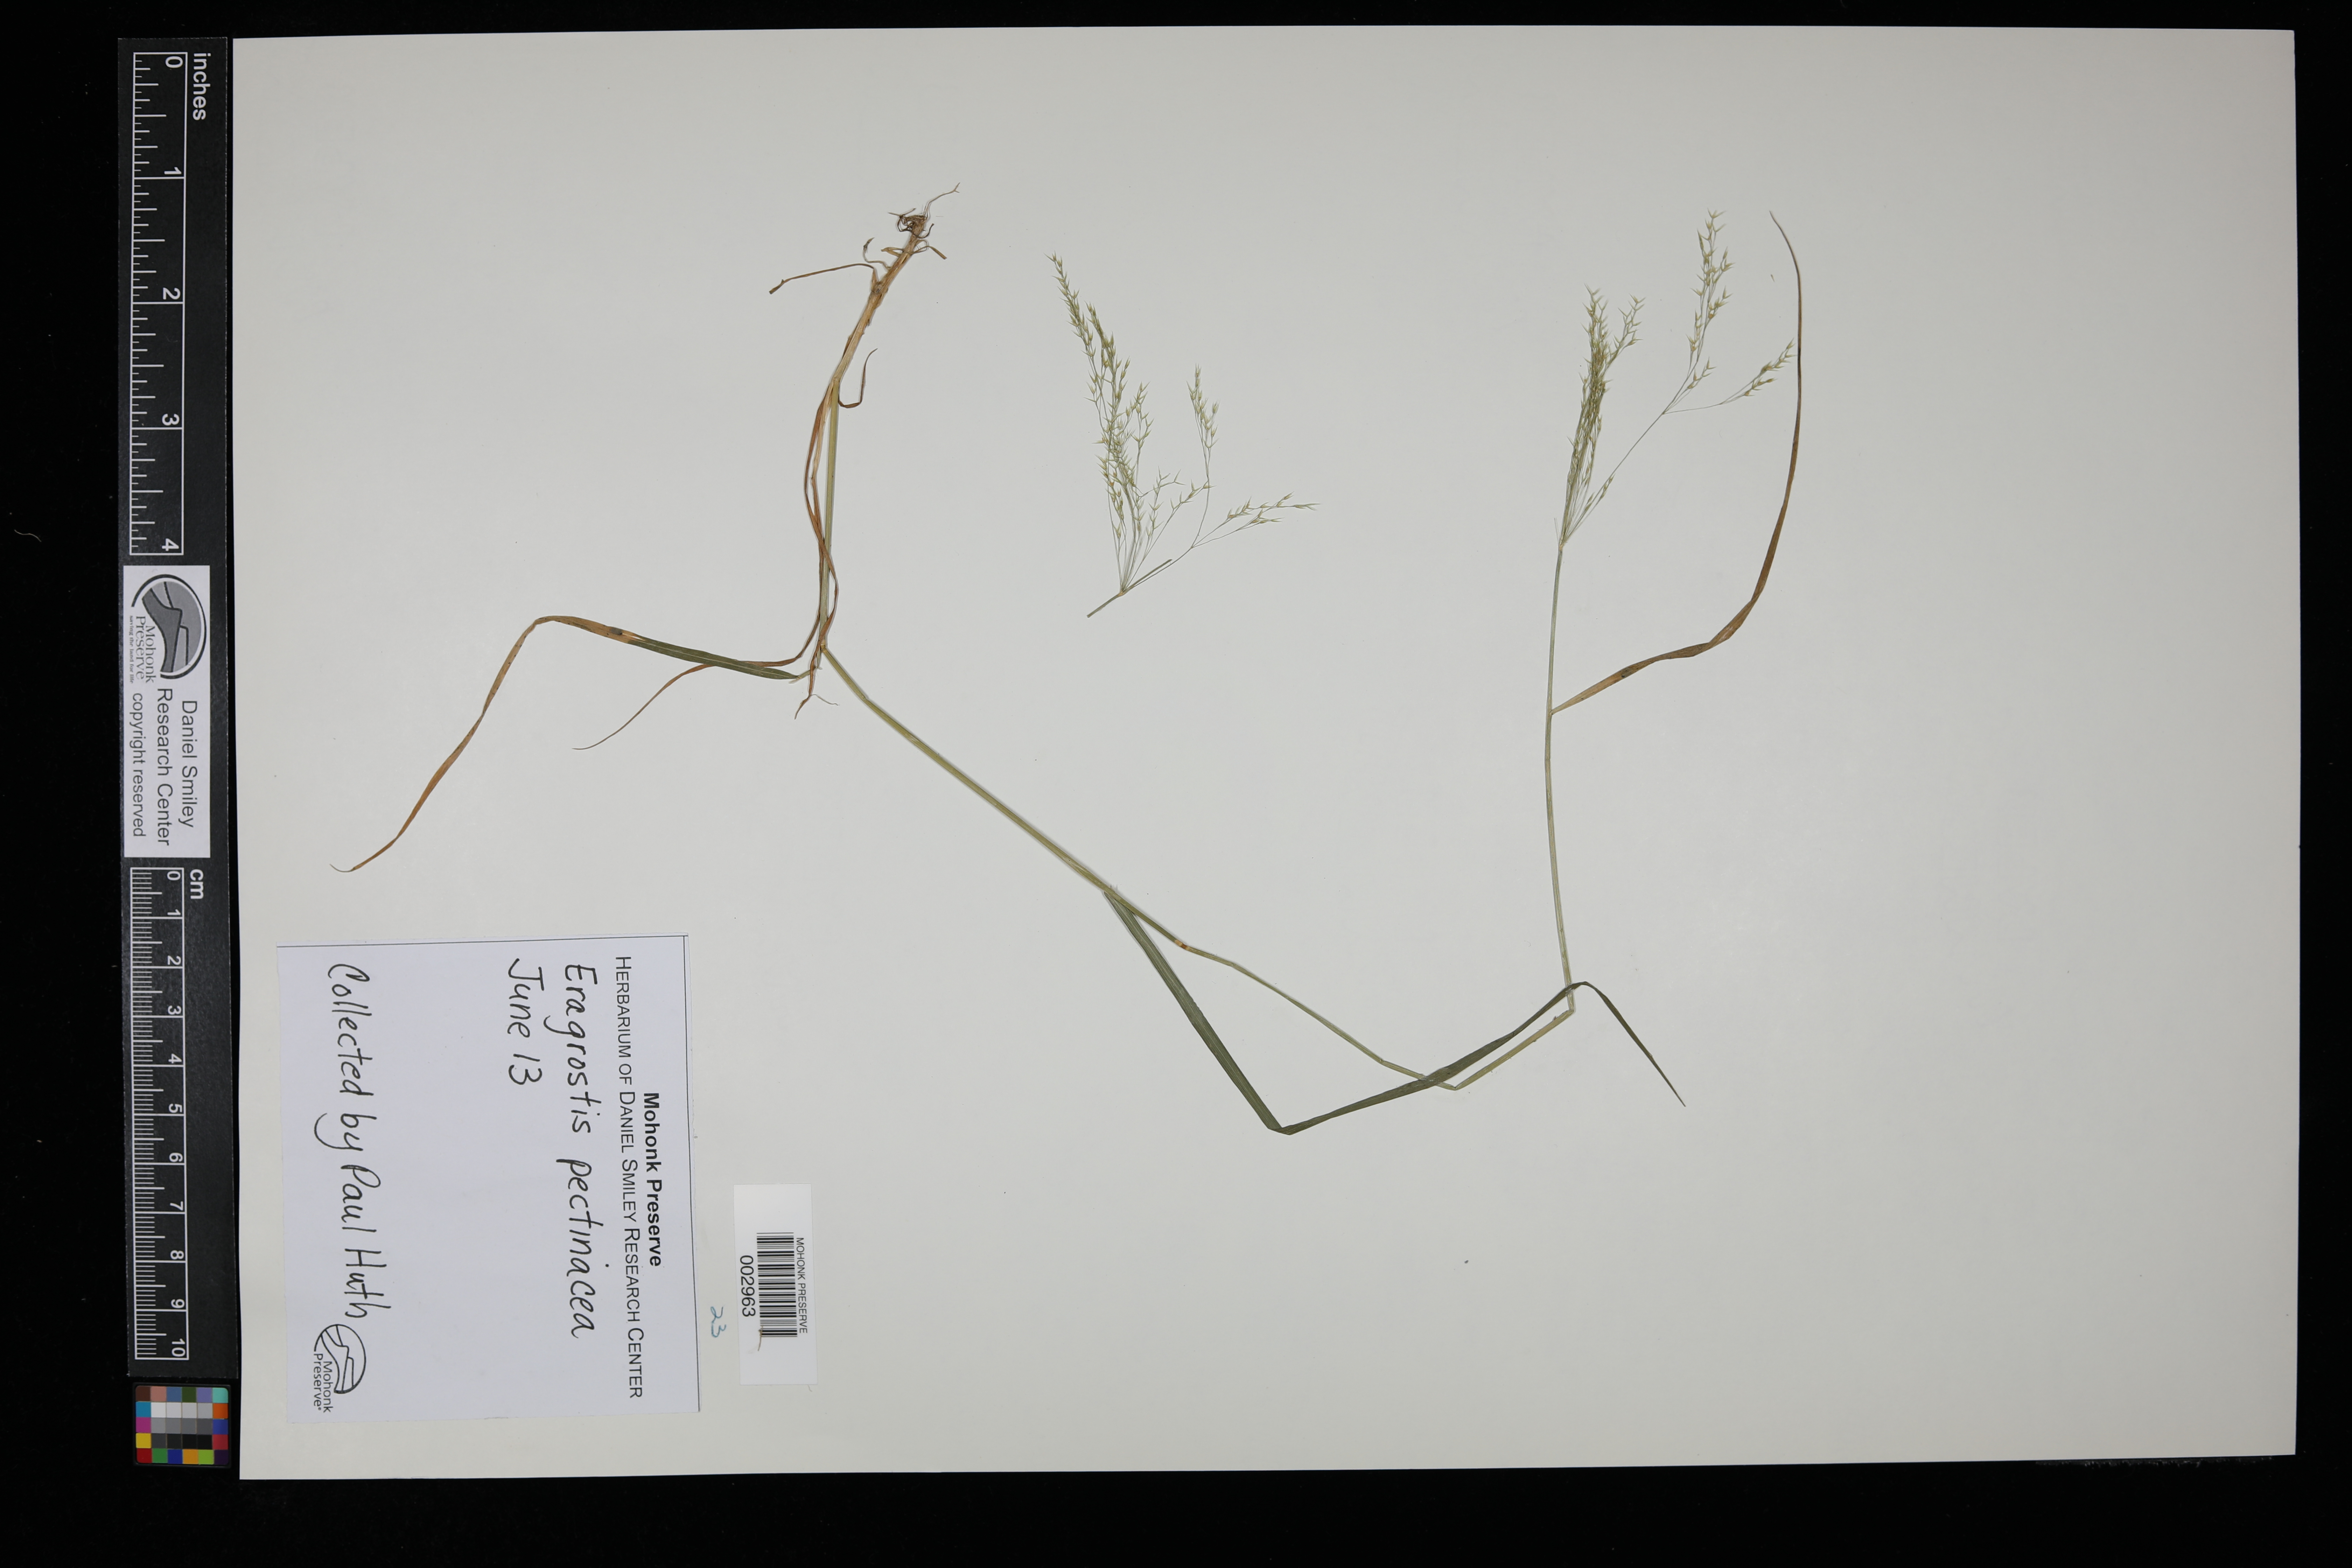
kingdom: Plantae
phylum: Tracheophyta
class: Liliopsida
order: Poales
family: Poaceae
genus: Eragrostis
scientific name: Eragrostis pectinacea
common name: Tufted lovegrass
